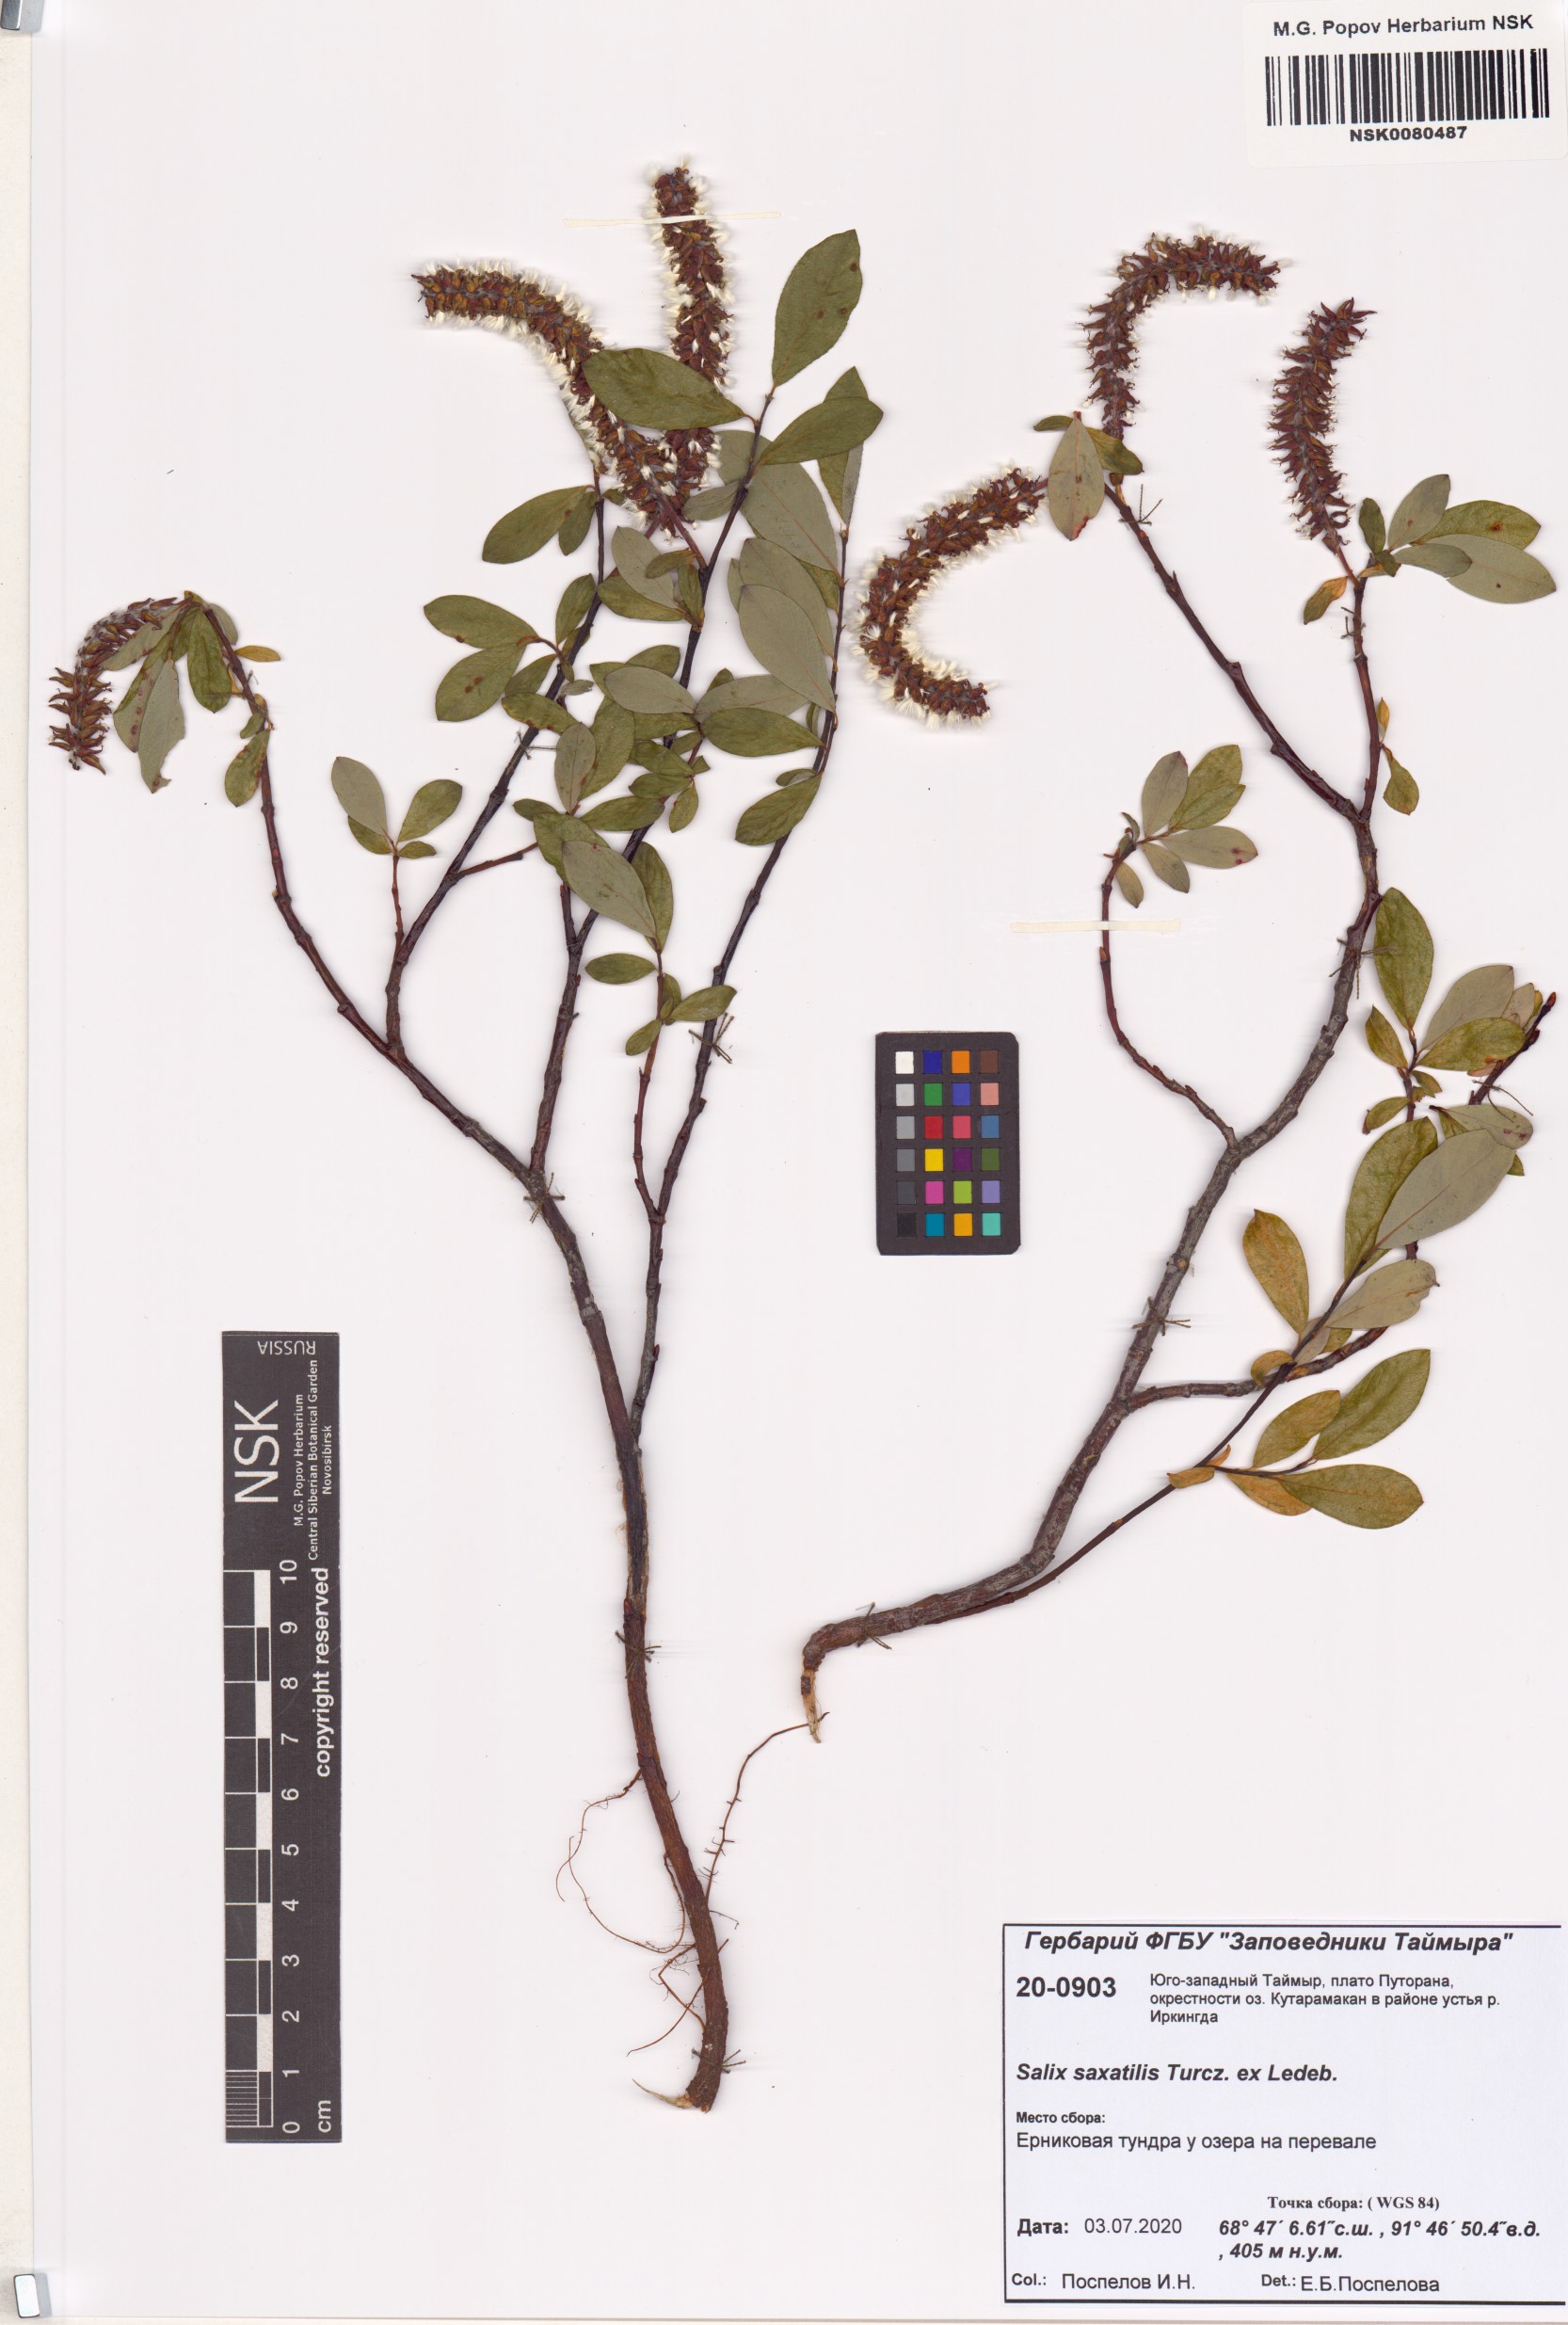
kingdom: Plantae
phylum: Tracheophyta
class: Magnoliopsida
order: Malpighiales
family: Salicaceae
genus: Salix
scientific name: Salix saxatilis
